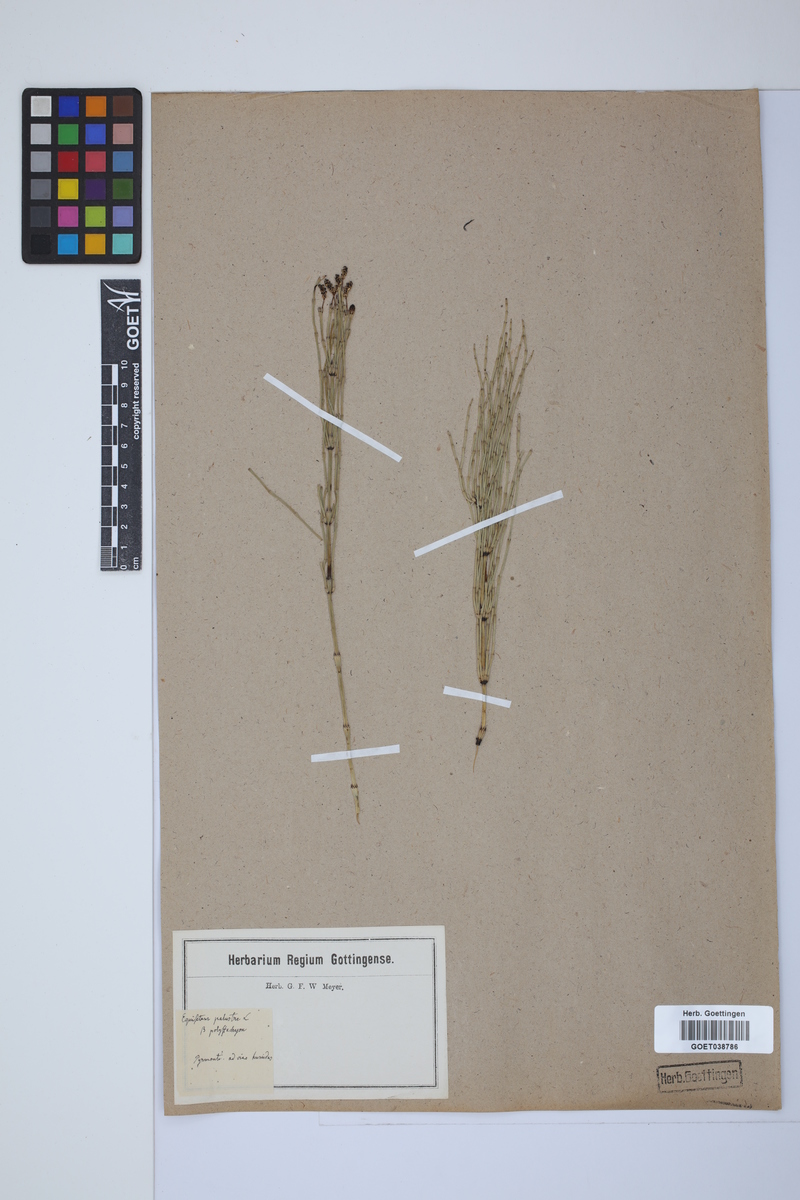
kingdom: Plantae
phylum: Tracheophyta
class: Polypodiopsida
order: Equisetales
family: Equisetaceae
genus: Equisetum
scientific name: Equisetum palustre
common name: Marsh horsetail
